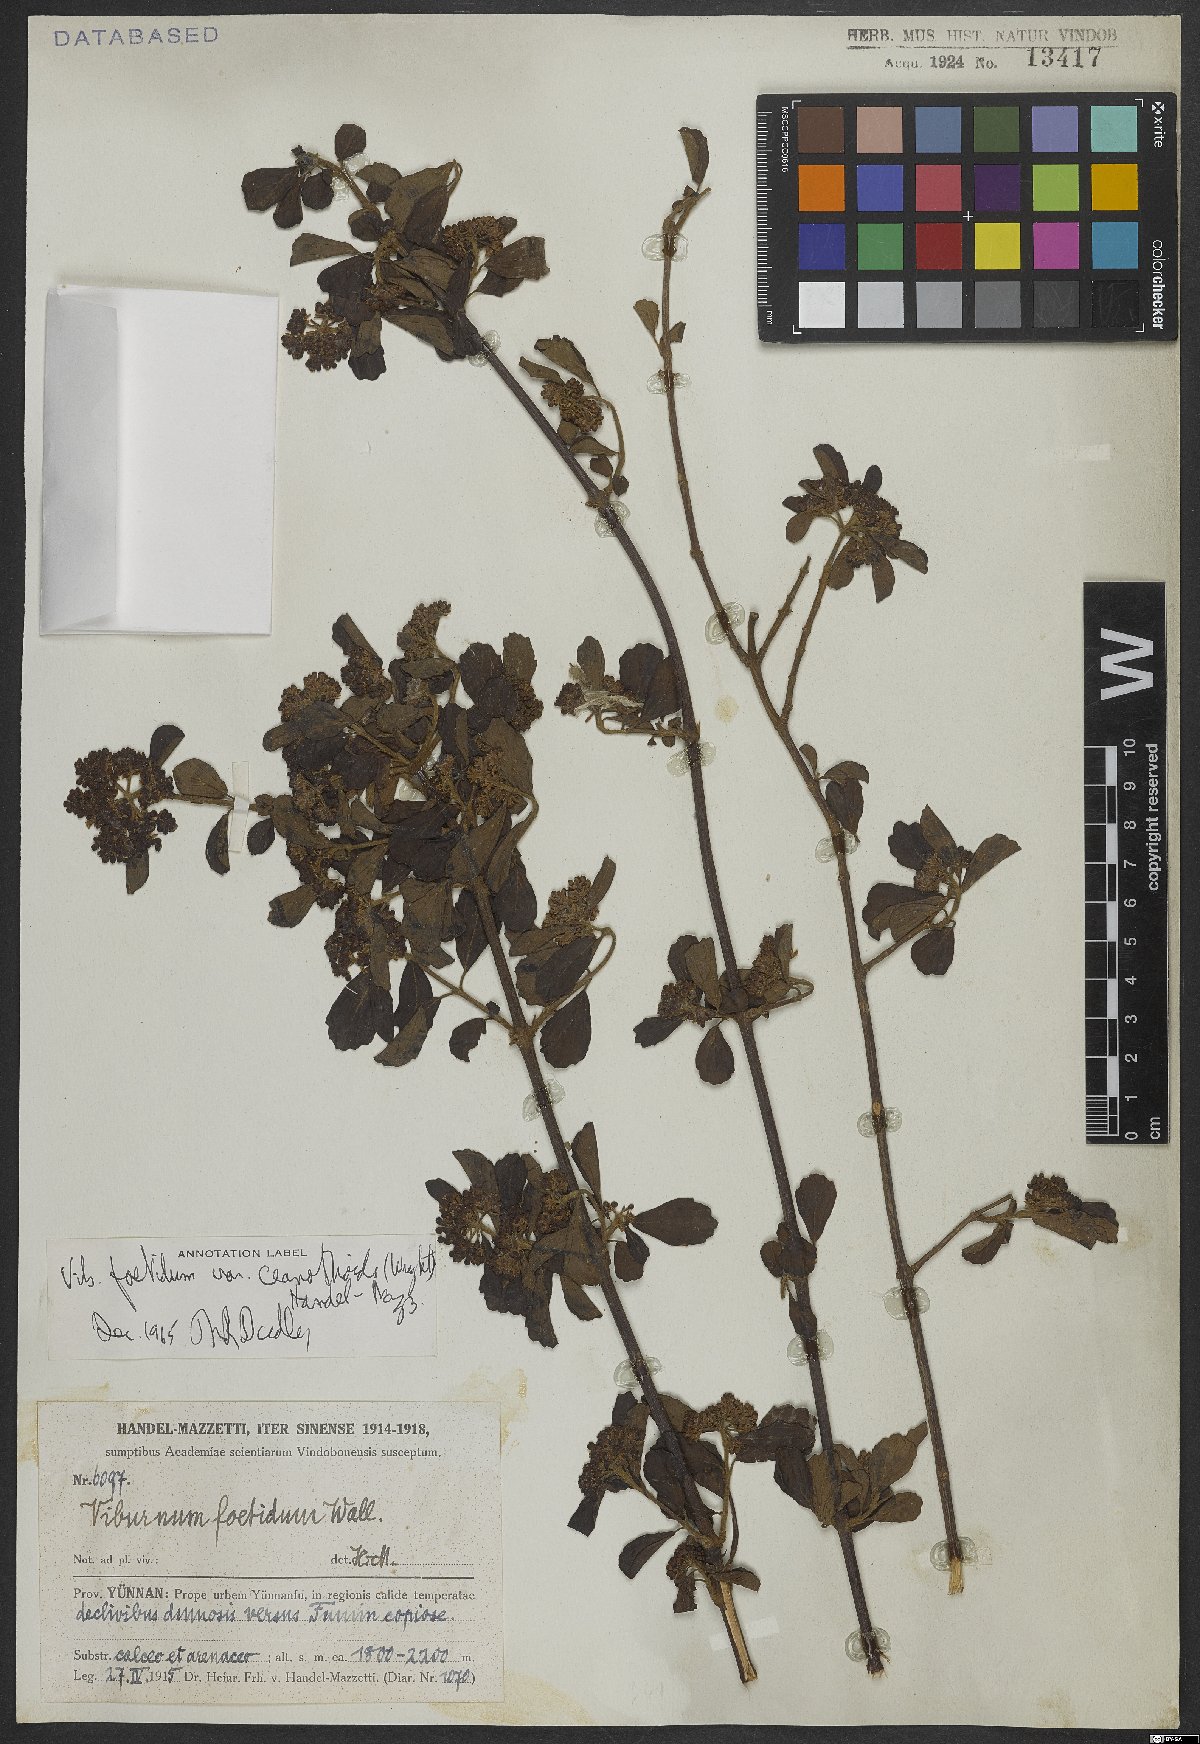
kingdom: Plantae
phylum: Tracheophyta
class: Magnoliopsida
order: Dipsacales
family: Viburnaceae
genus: Viburnum
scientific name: Viburnum foetidum
